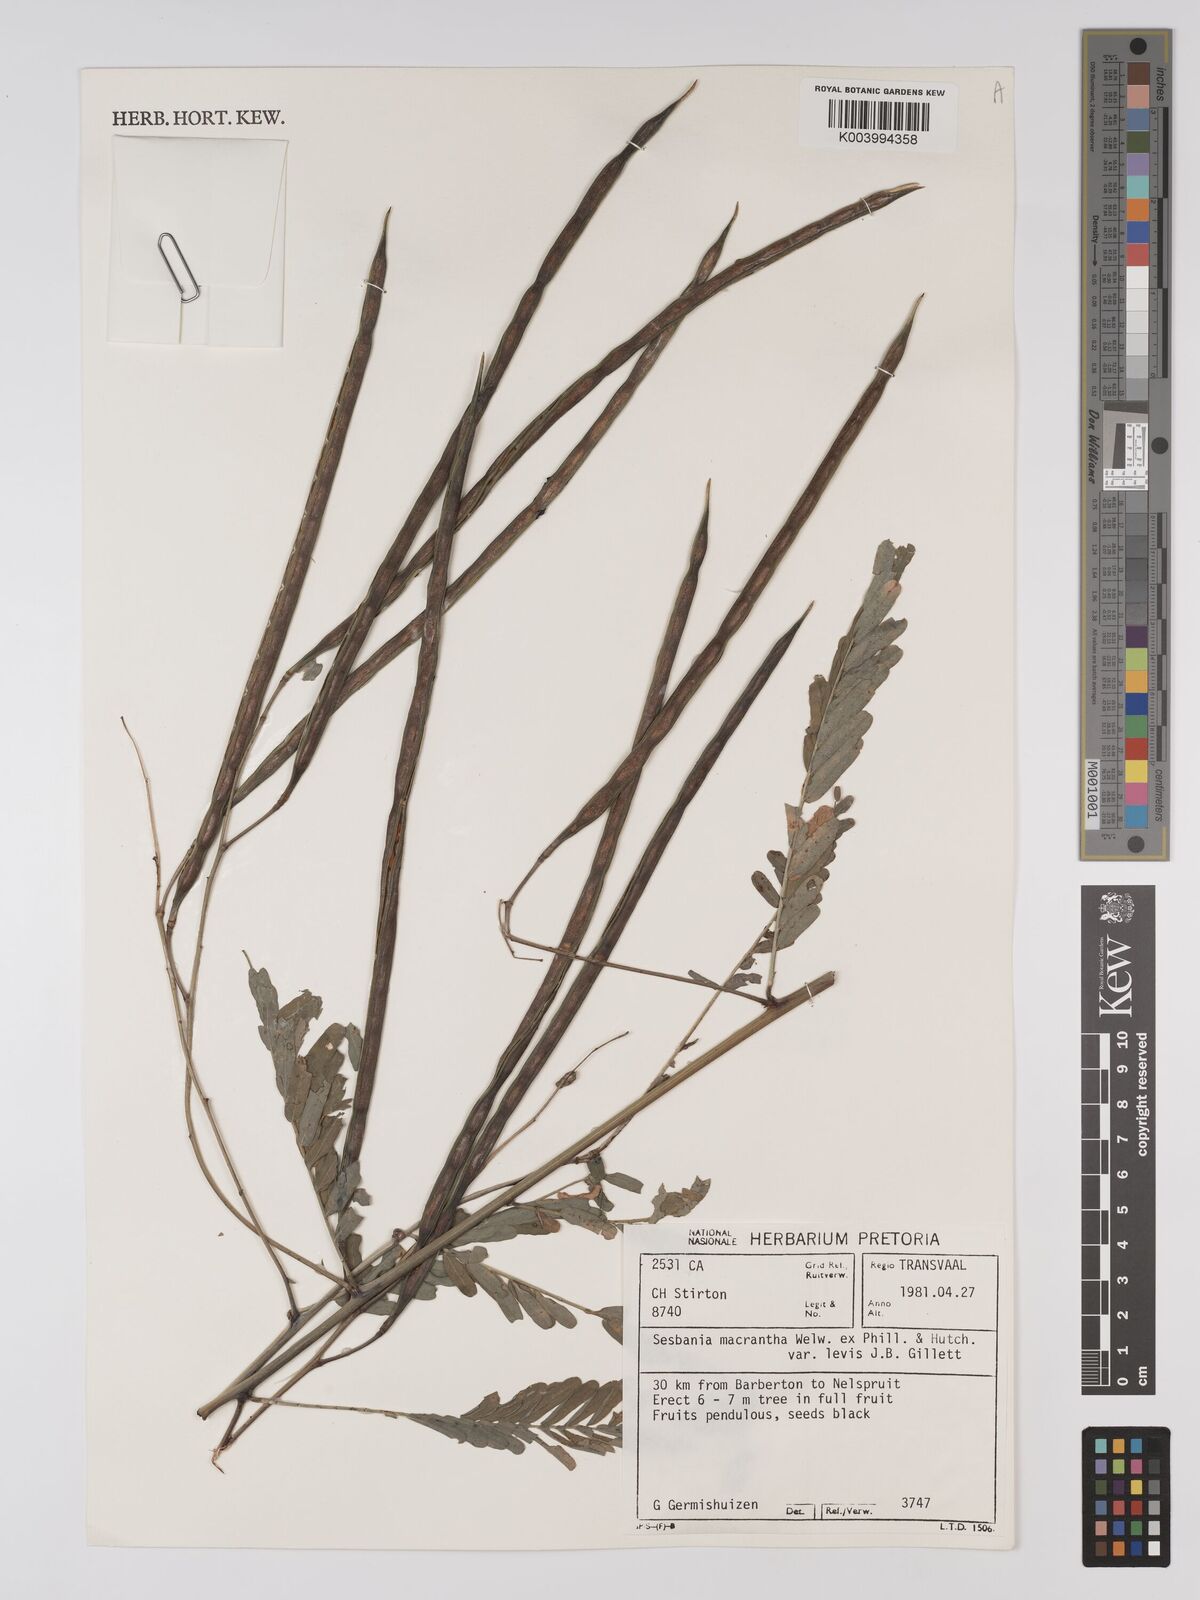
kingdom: Plantae
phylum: Tracheophyta
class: Magnoliopsida
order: Fabales
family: Fabaceae
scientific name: Fabaceae
